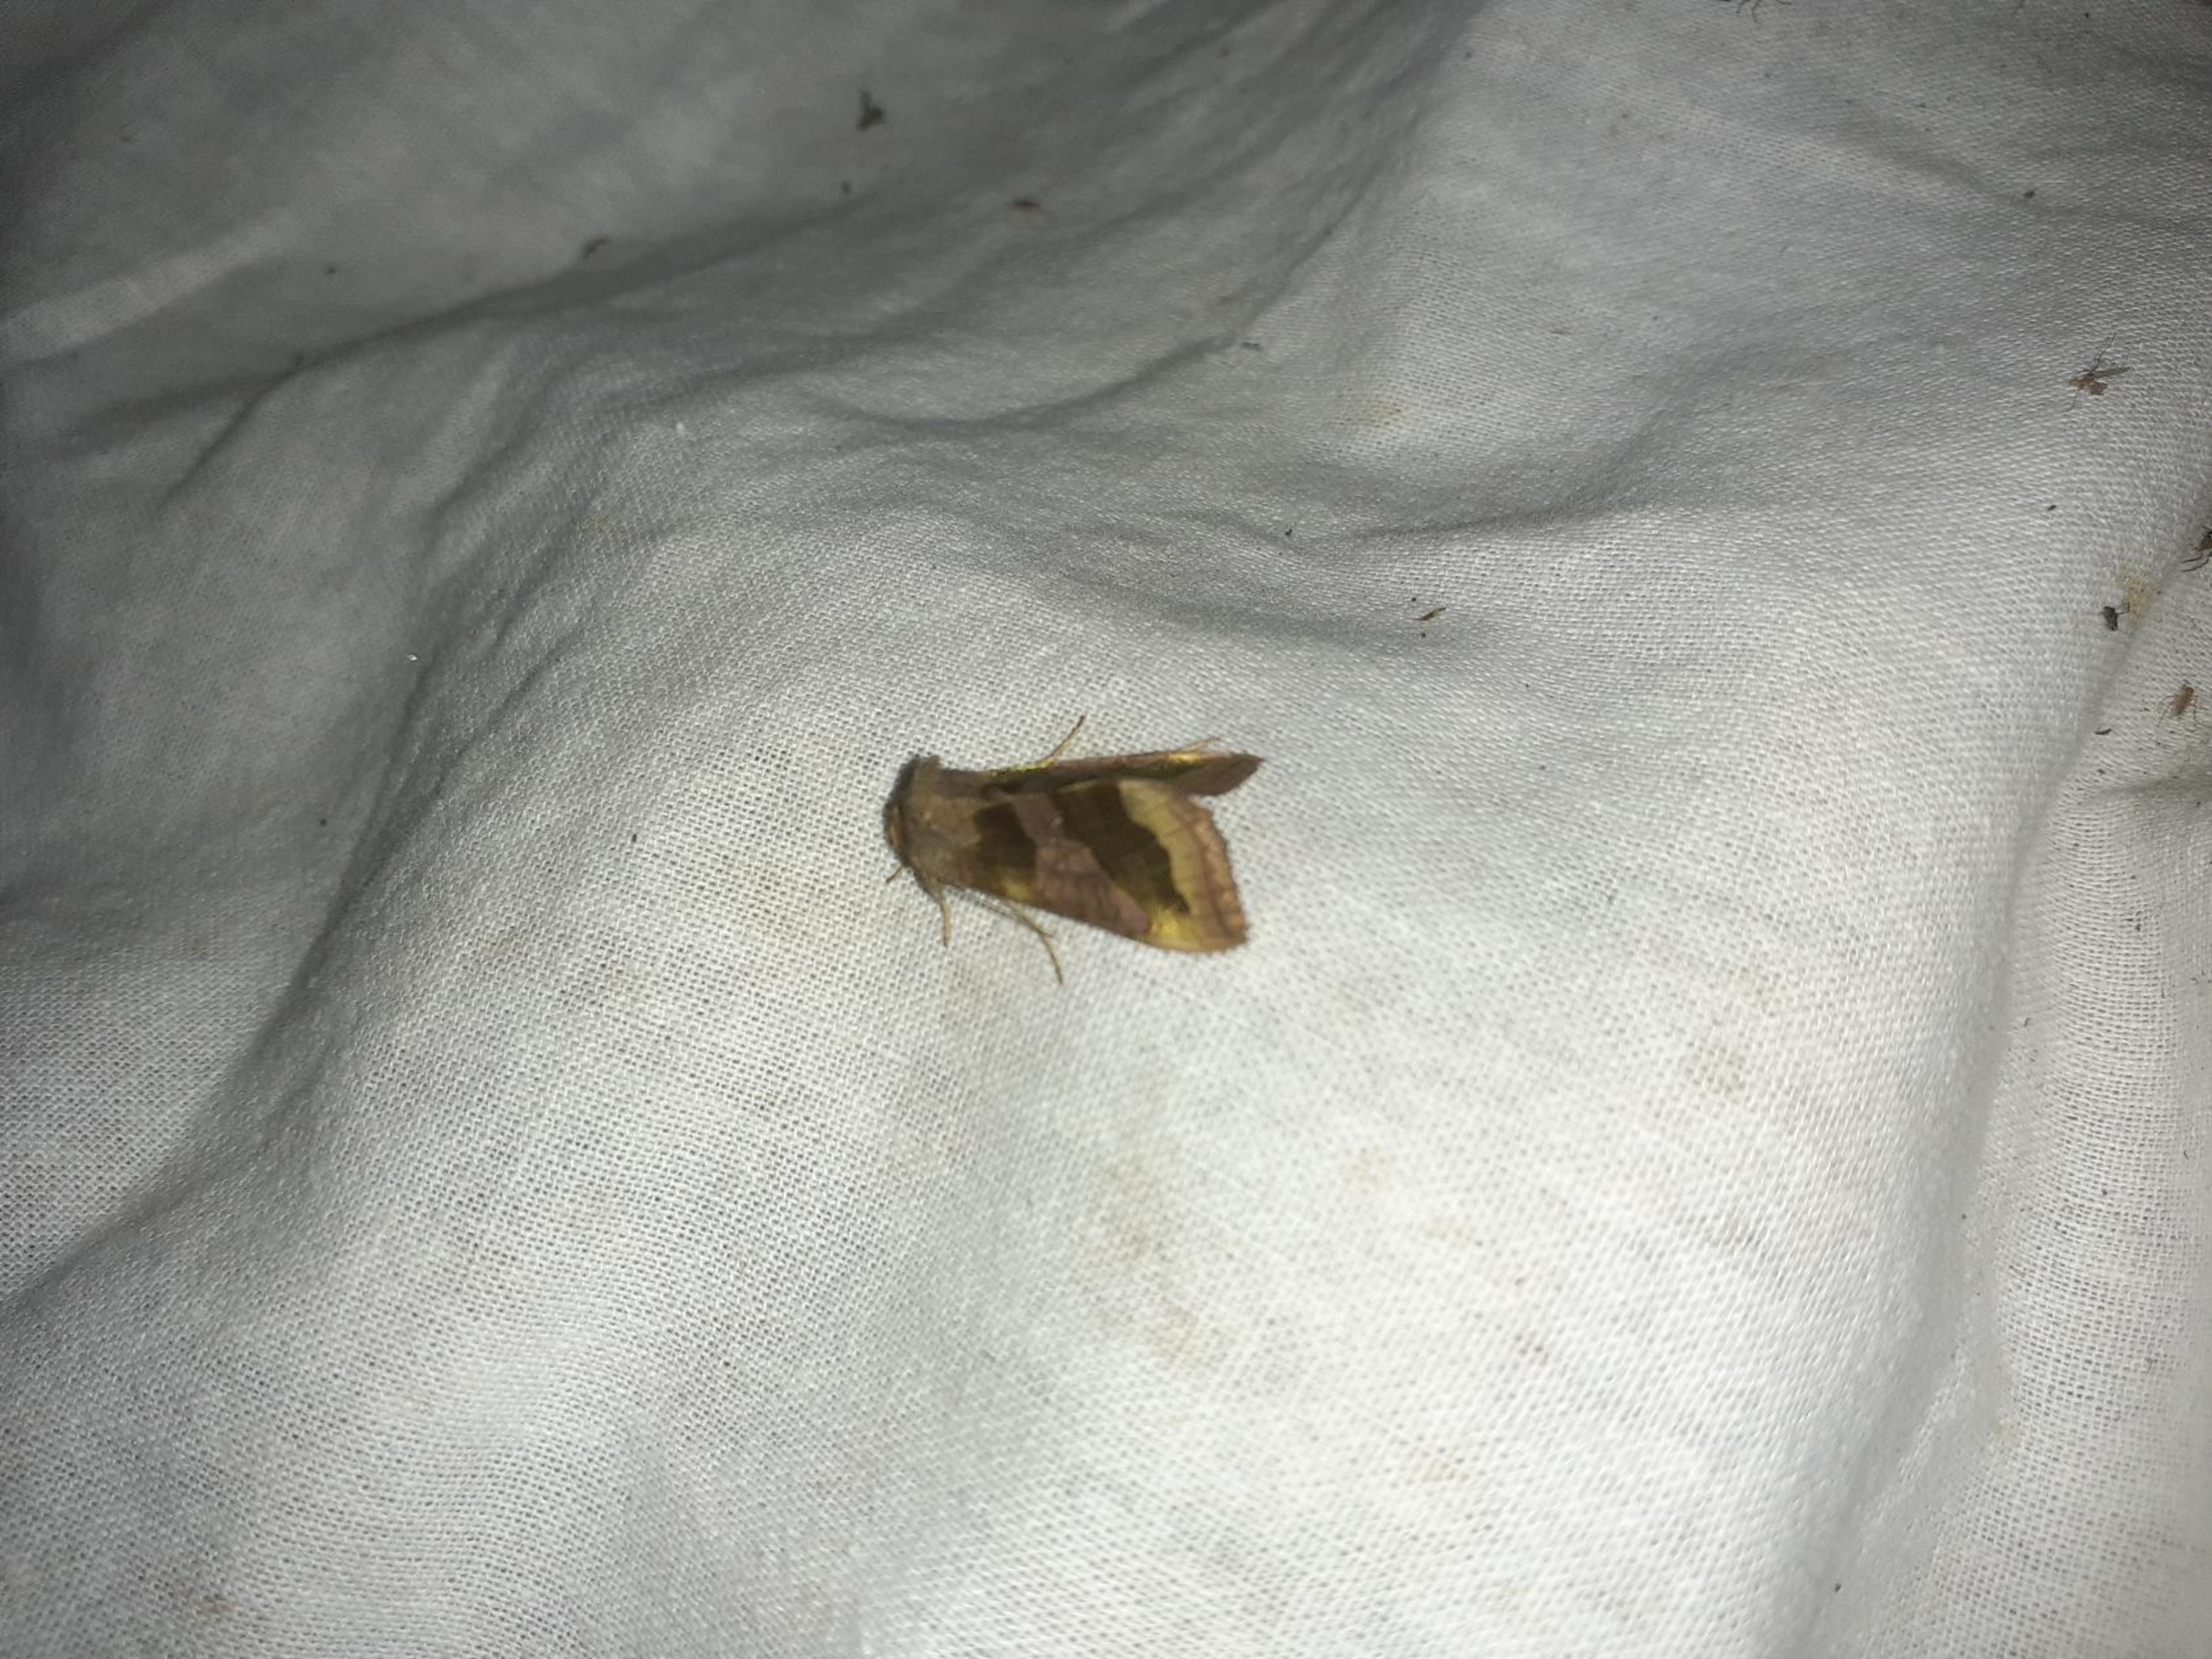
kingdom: Animalia
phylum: Arthropoda
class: Insecta
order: Lepidoptera
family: Noctuidae
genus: Diachrysia
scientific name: Diachrysia chrysitis
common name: Messingugle
